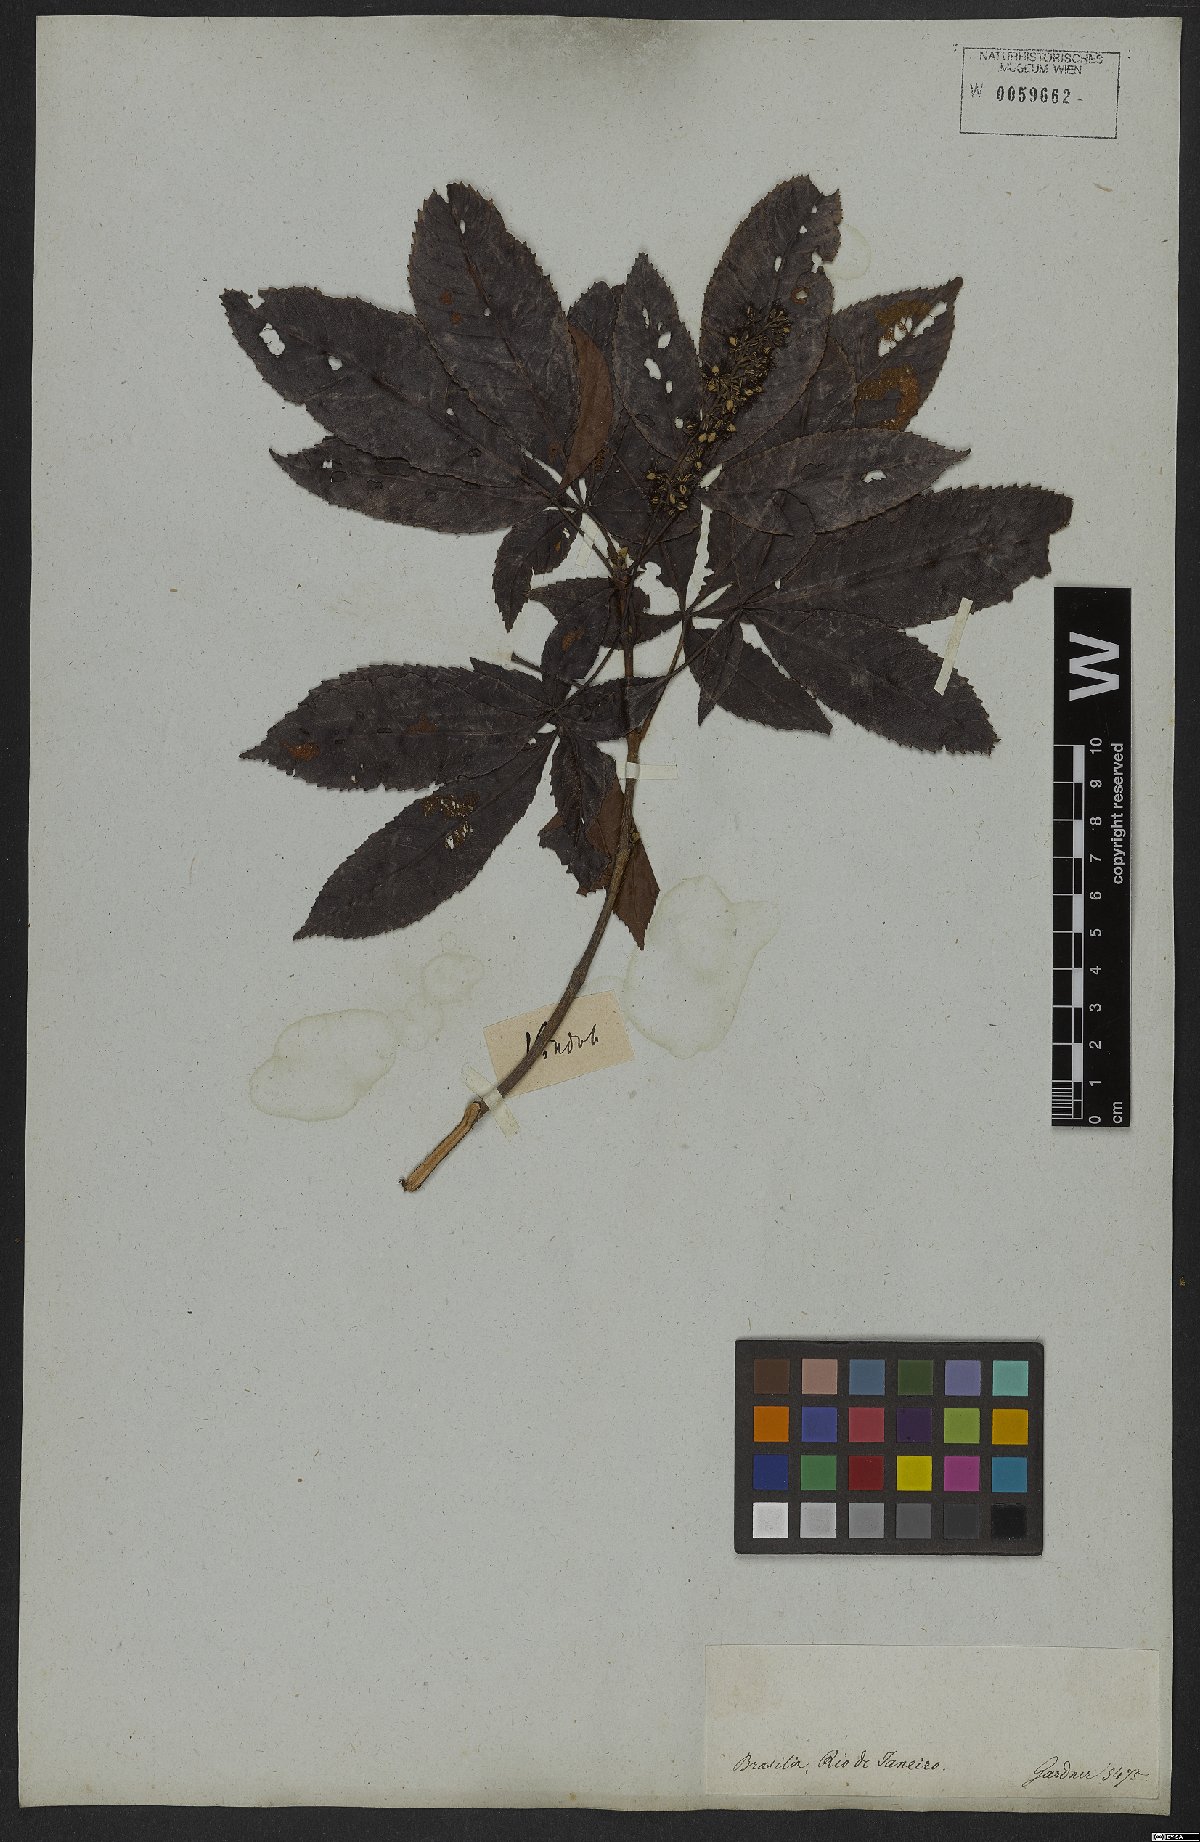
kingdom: Plantae
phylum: Tracheophyta
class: Magnoliopsida
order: Oxalidales
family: Cunoniaceae
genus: Lamanonia
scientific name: Lamanonia speciosa
